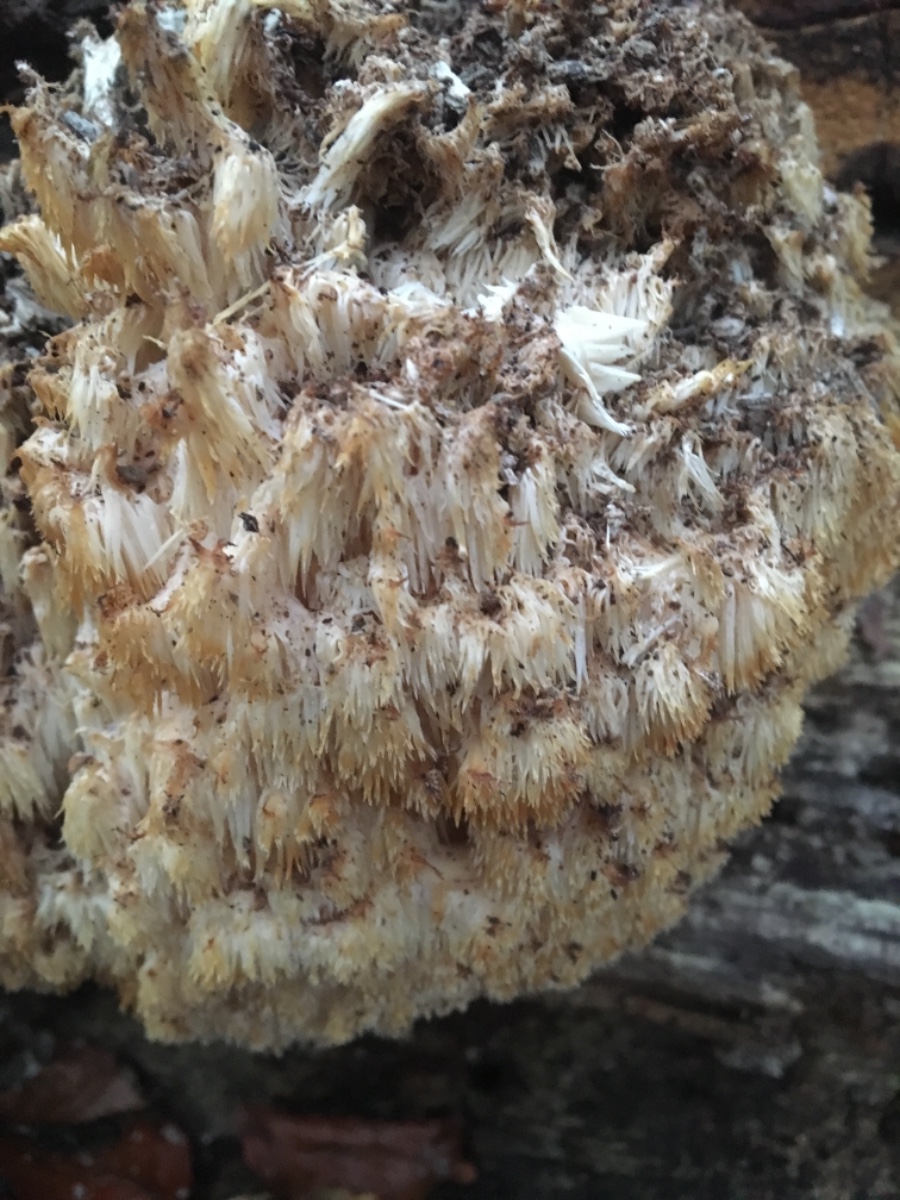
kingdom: Fungi
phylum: Basidiomycota
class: Agaricomycetes
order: Russulales
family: Hericiaceae
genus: Hericium
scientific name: Hericium coralloides
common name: koralpigsvamp
